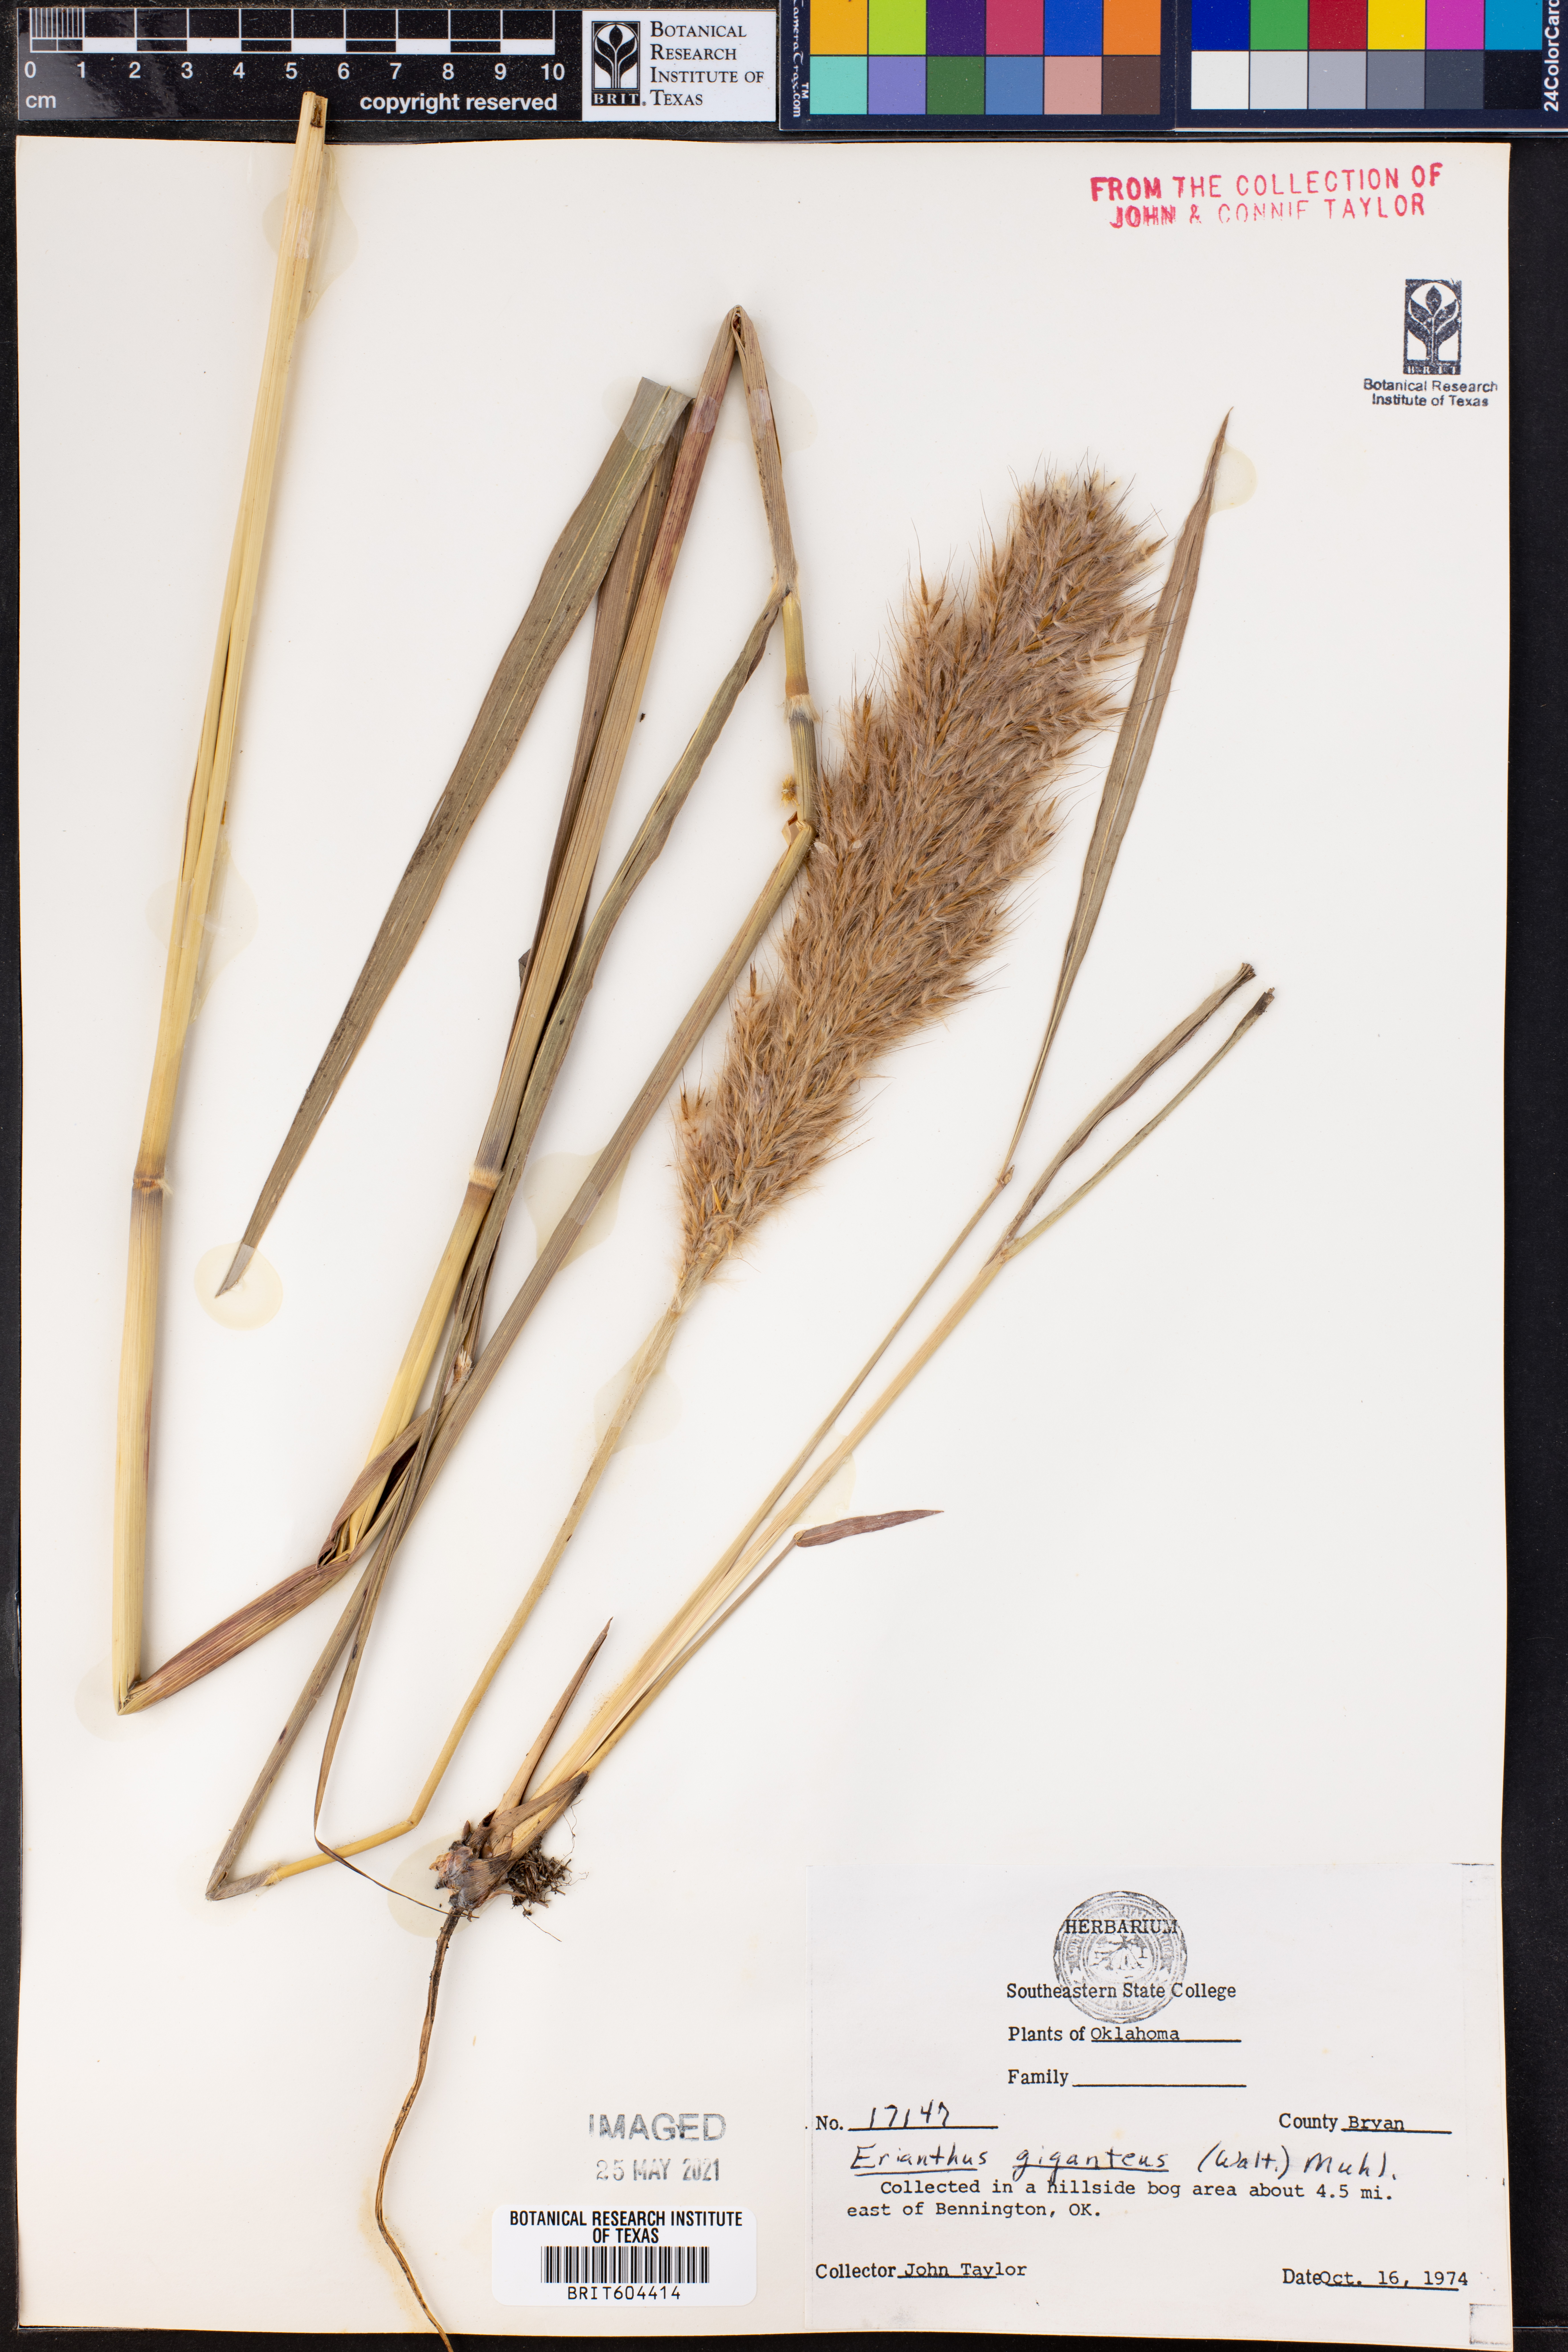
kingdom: Plantae
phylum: Tracheophyta
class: Liliopsida
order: Poales
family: Poaceae
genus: Erianthus
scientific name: Erianthus giganteus
